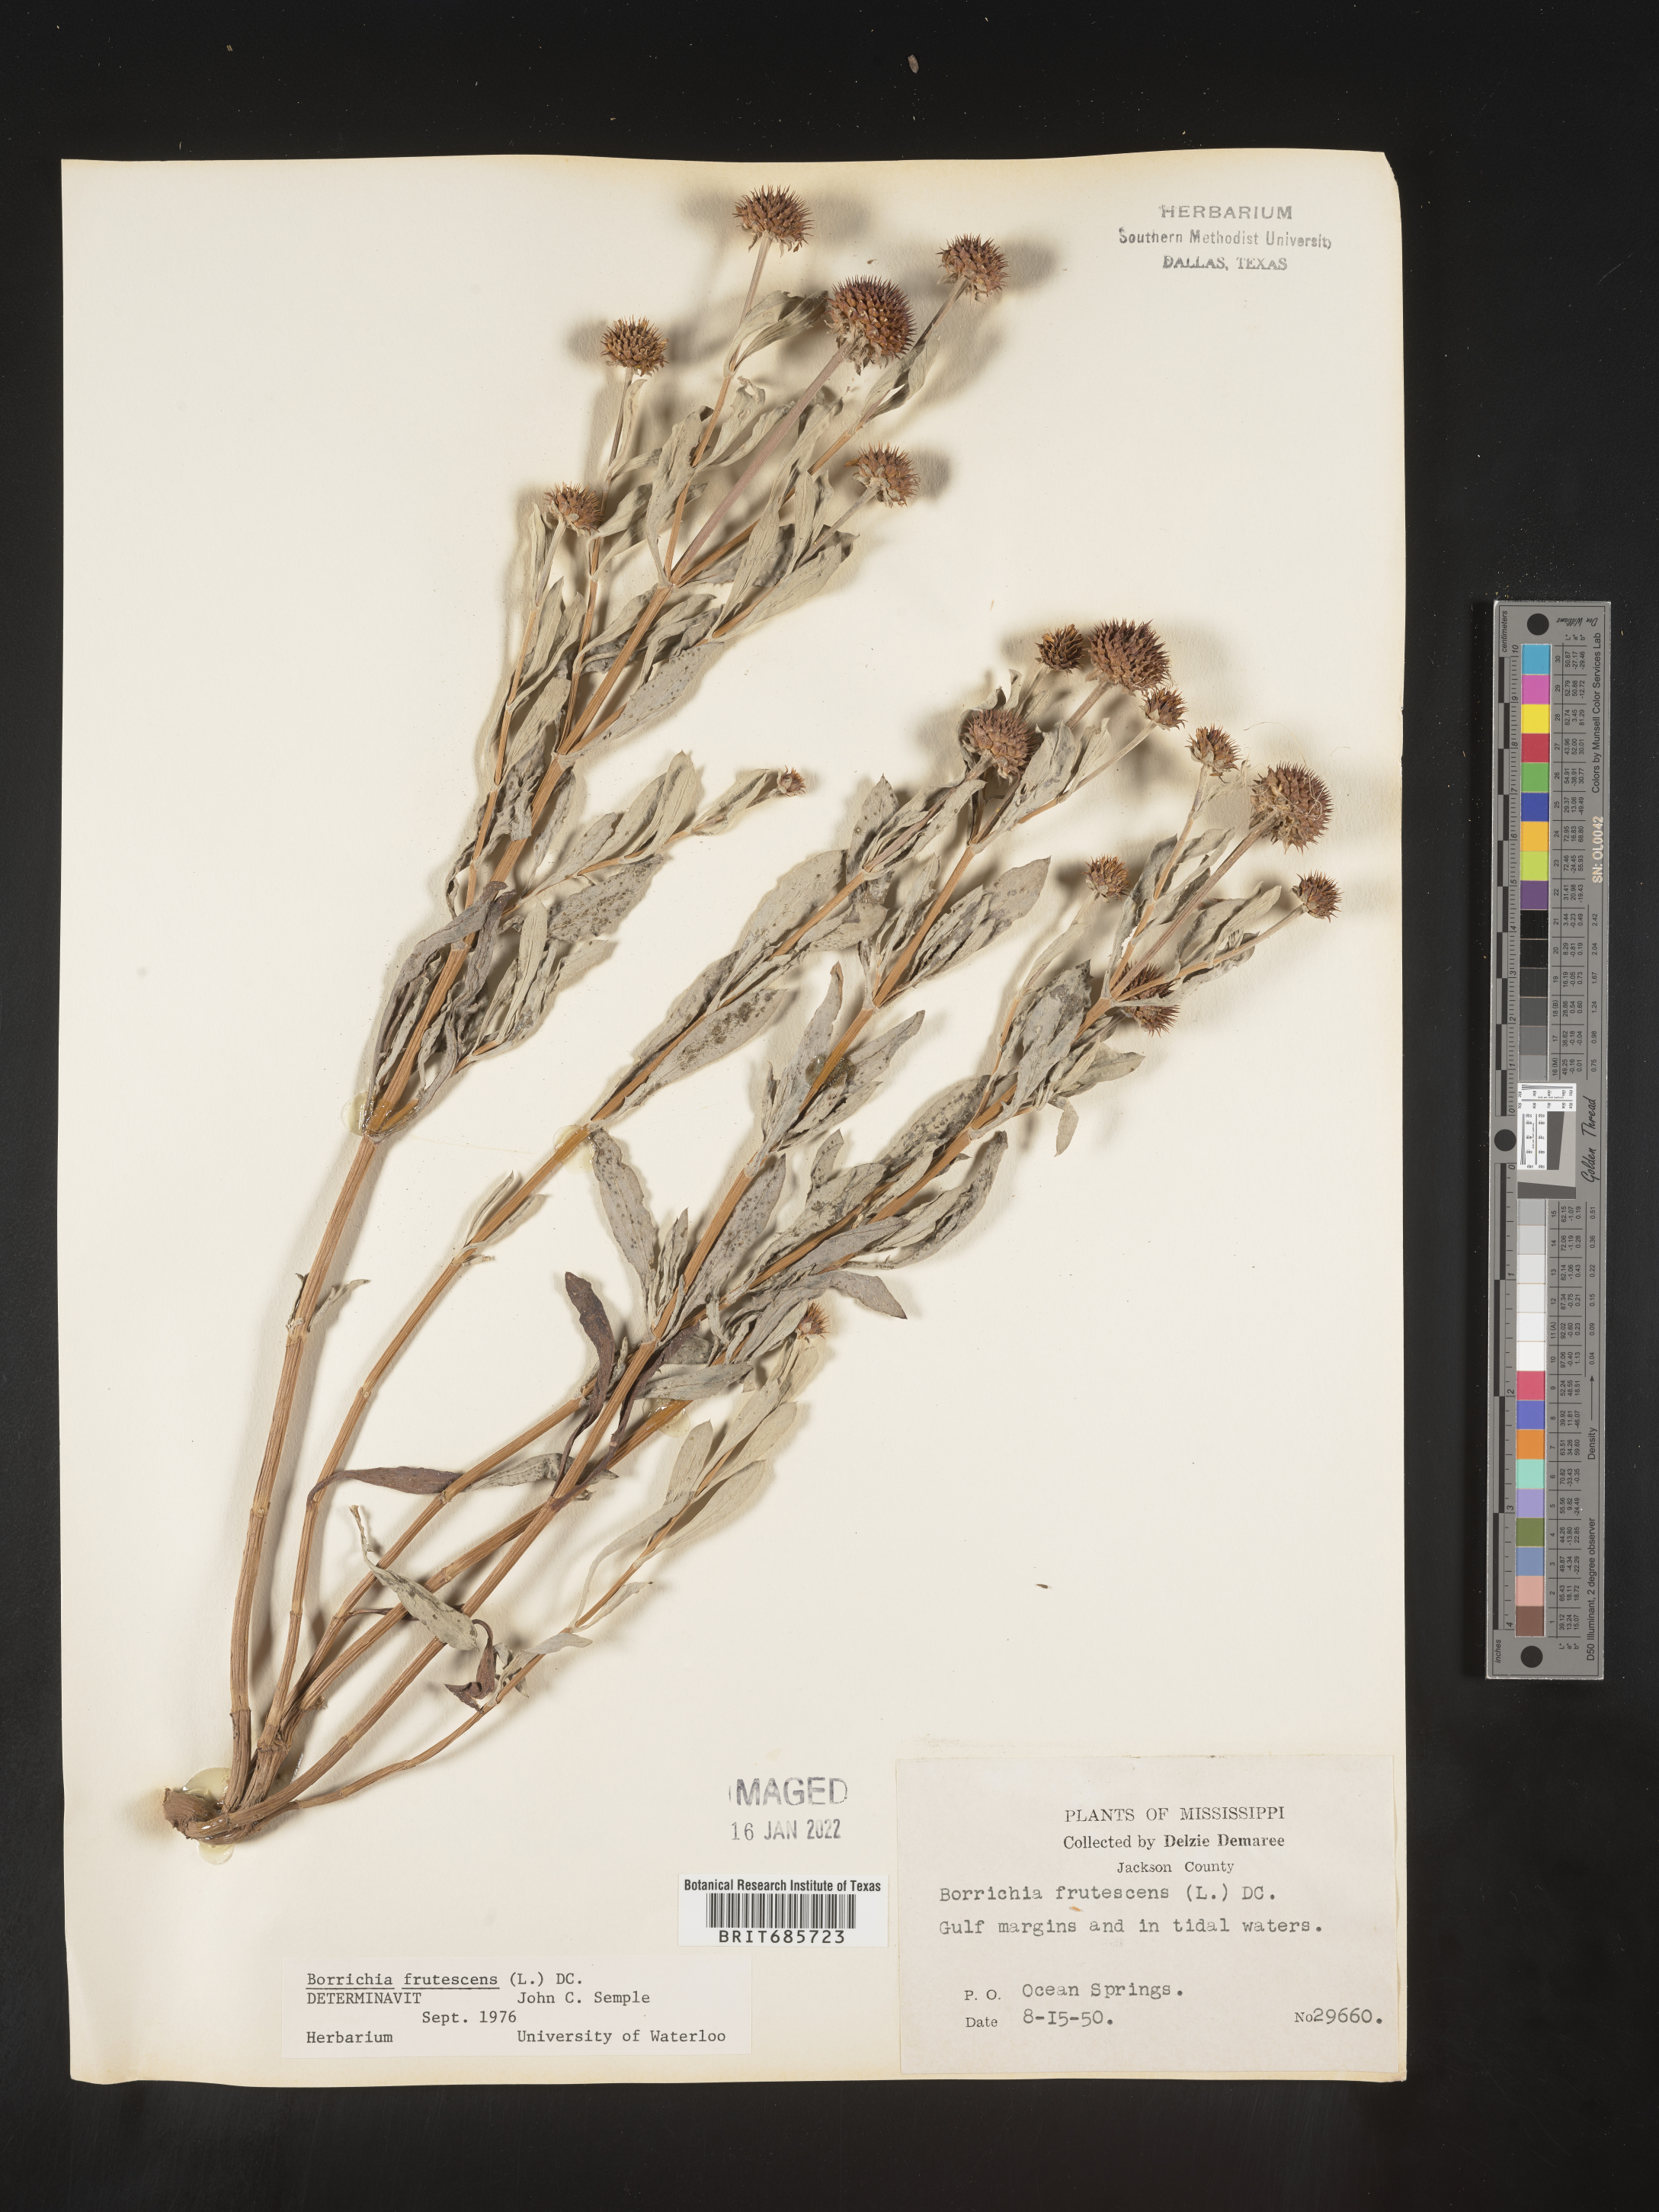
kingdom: Plantae
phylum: Tracheophyta
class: Magnoliopsida
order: Asterales
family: Asteraceae
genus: Borrichia
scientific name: Borrichia frutescens
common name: Sea oxeye
